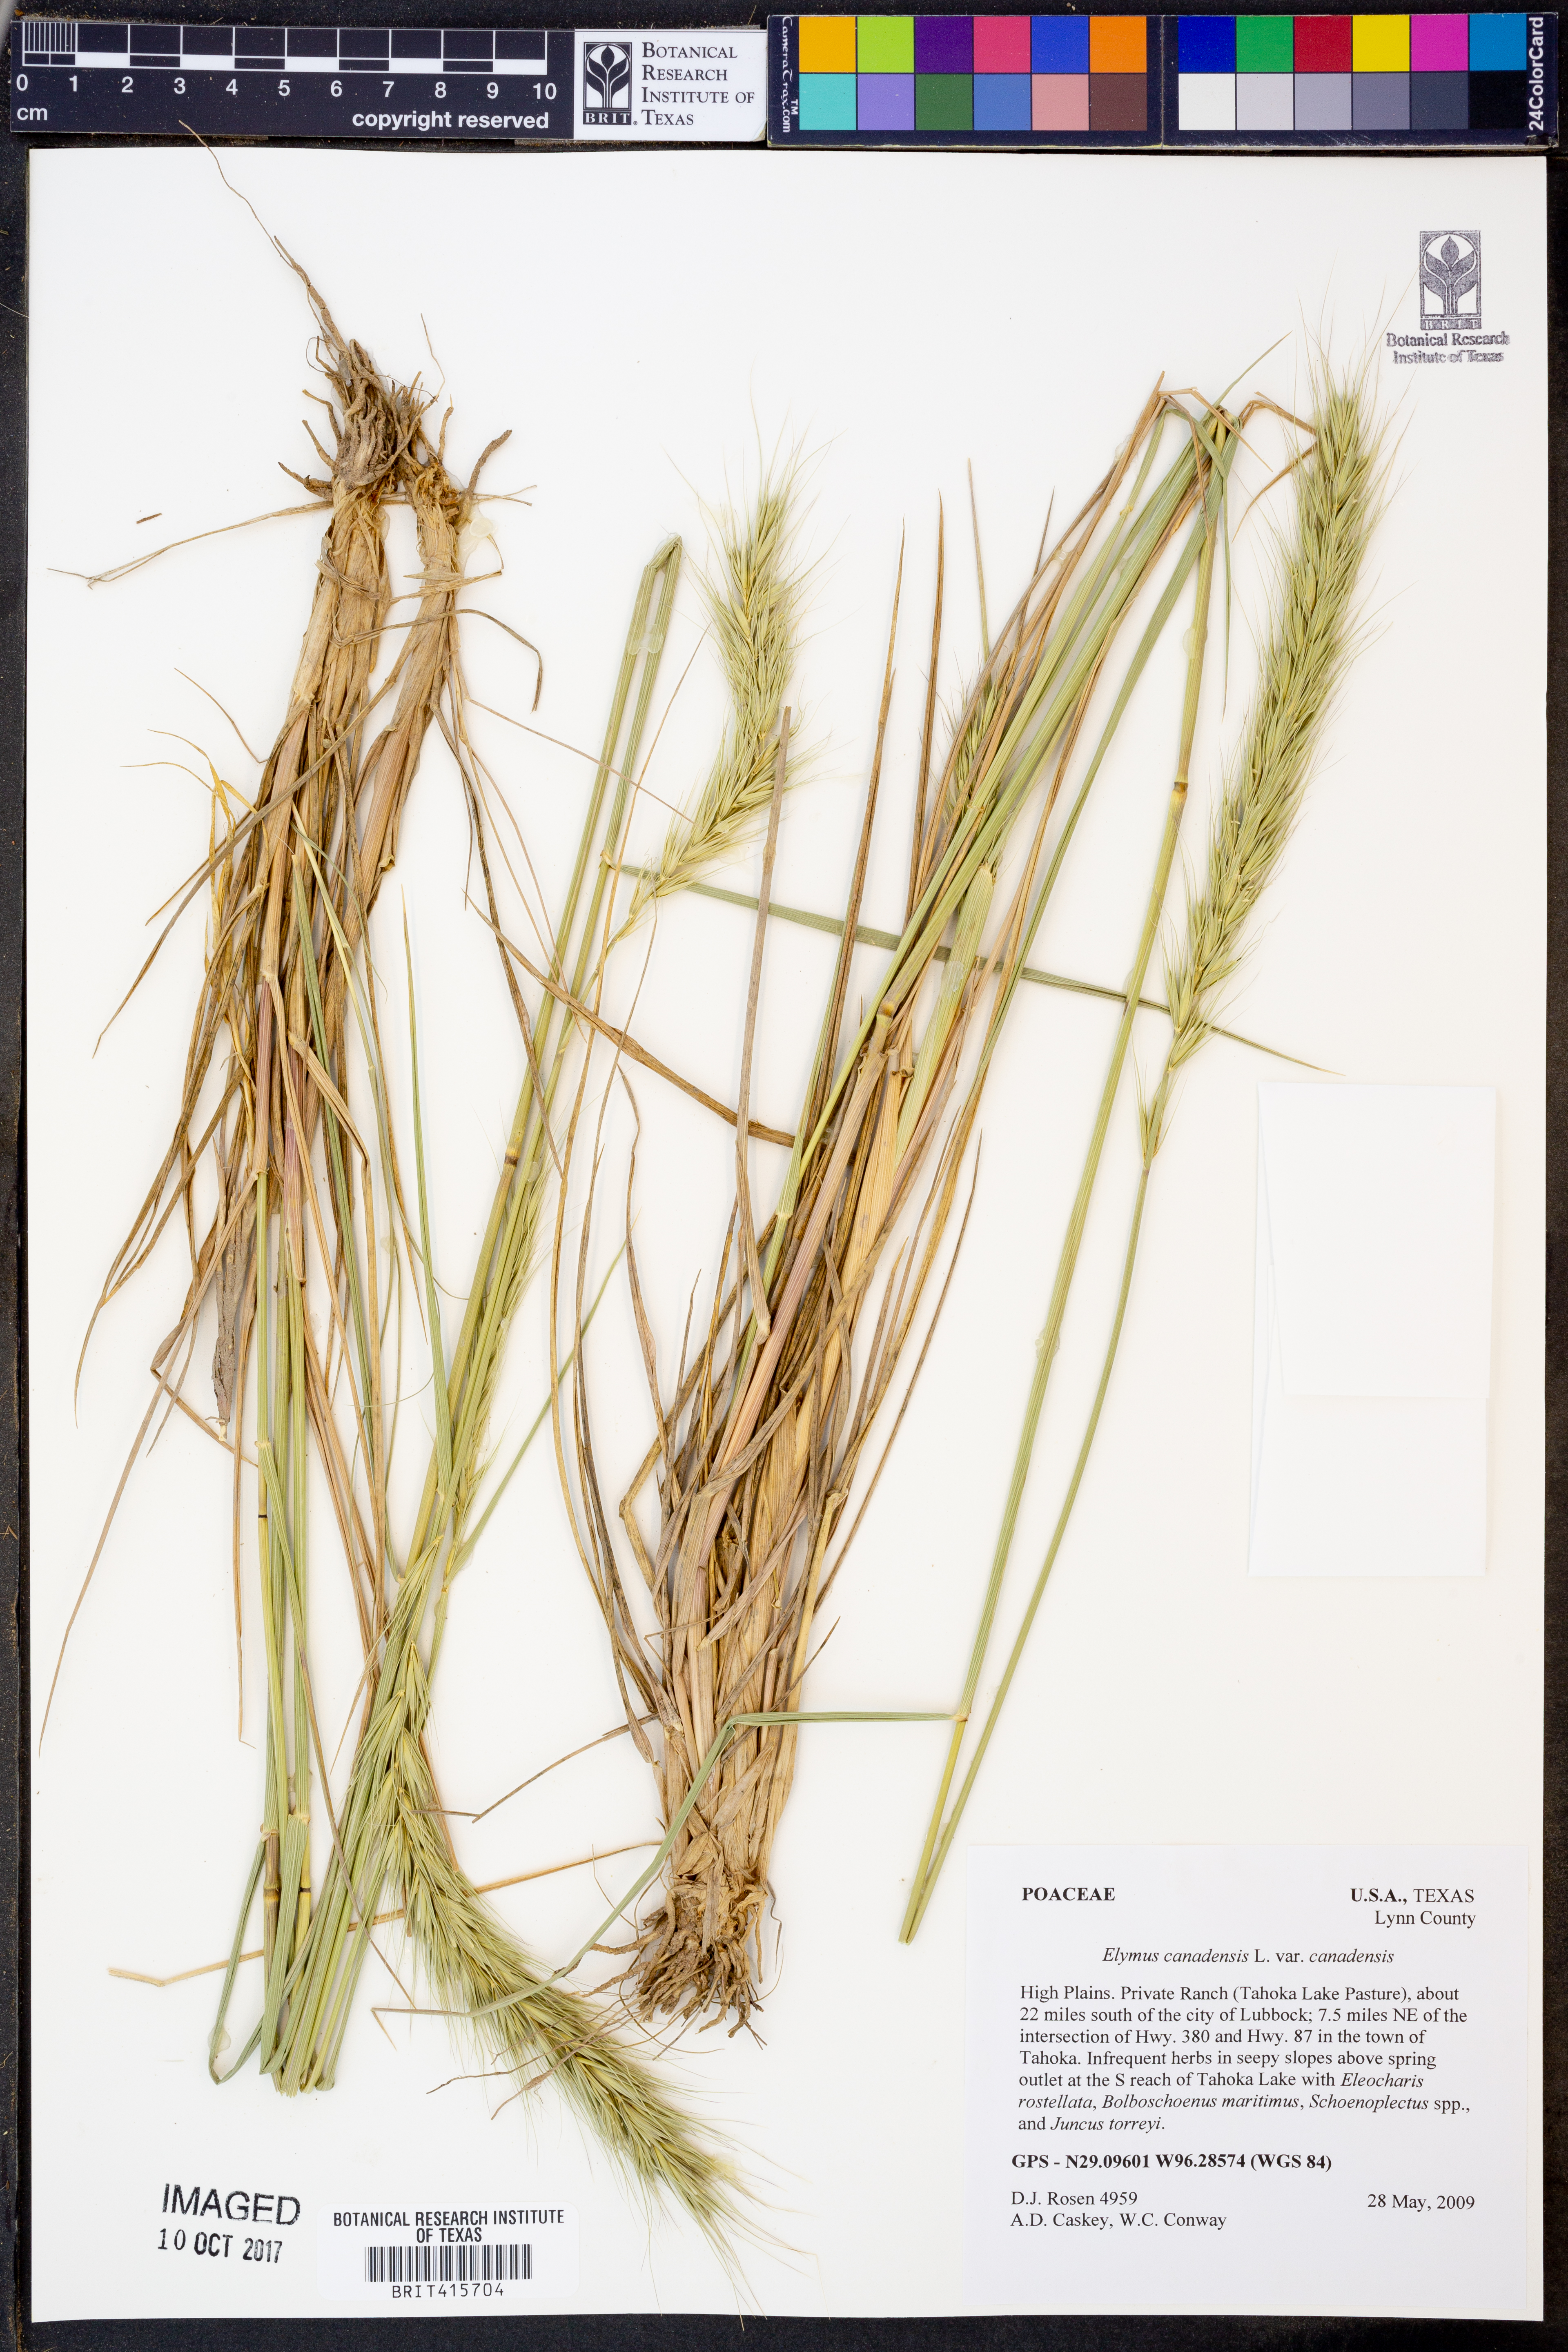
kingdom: Plantae
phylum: Tracheophyta
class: Liliopsida
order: Poales
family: Poaceae
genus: Elymus
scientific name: Elymus canadensis
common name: Canada wild rye
